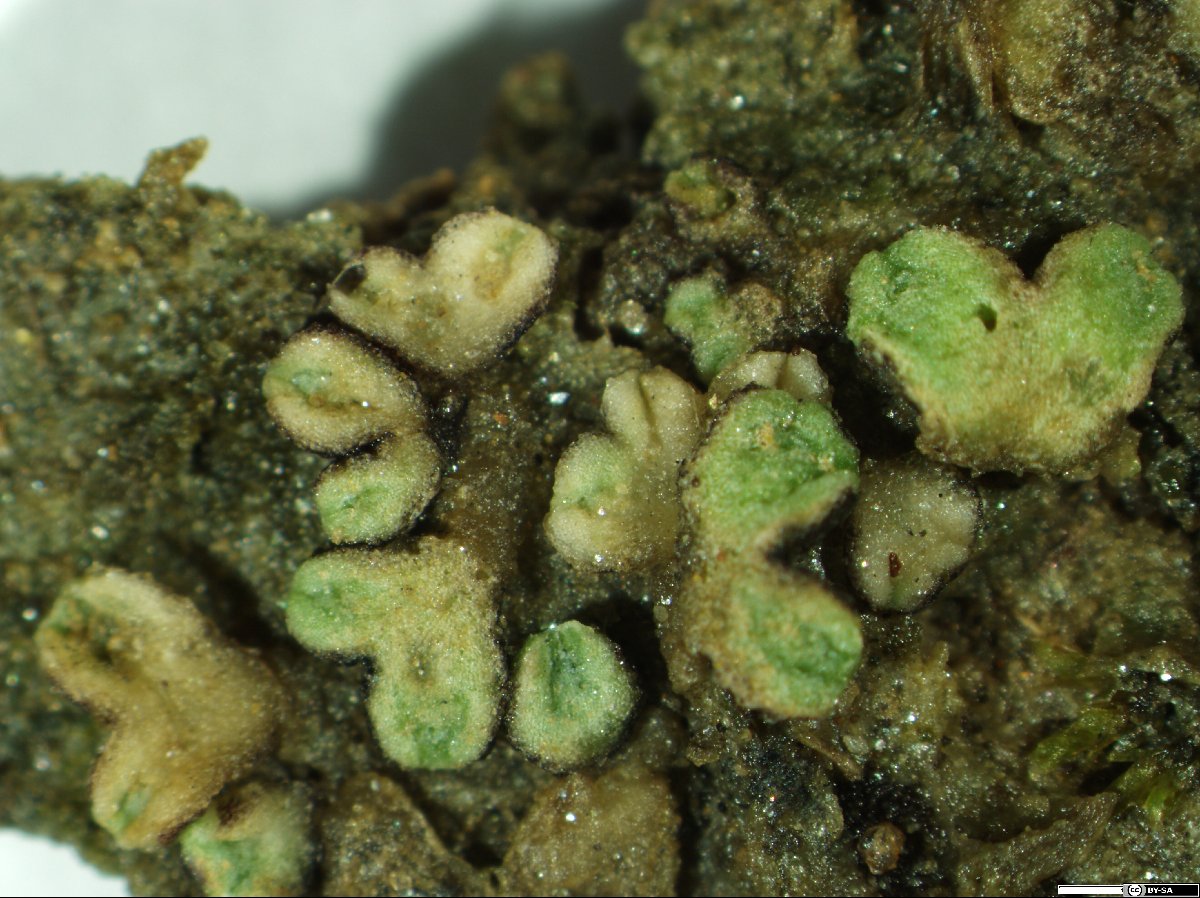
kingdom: Plantae
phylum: Marchantiophyta
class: Marchantiopsida
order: Marchantiales
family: Ricciaceae
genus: Riccia
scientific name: Riccia bifurca
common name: Lizard crystalwort
